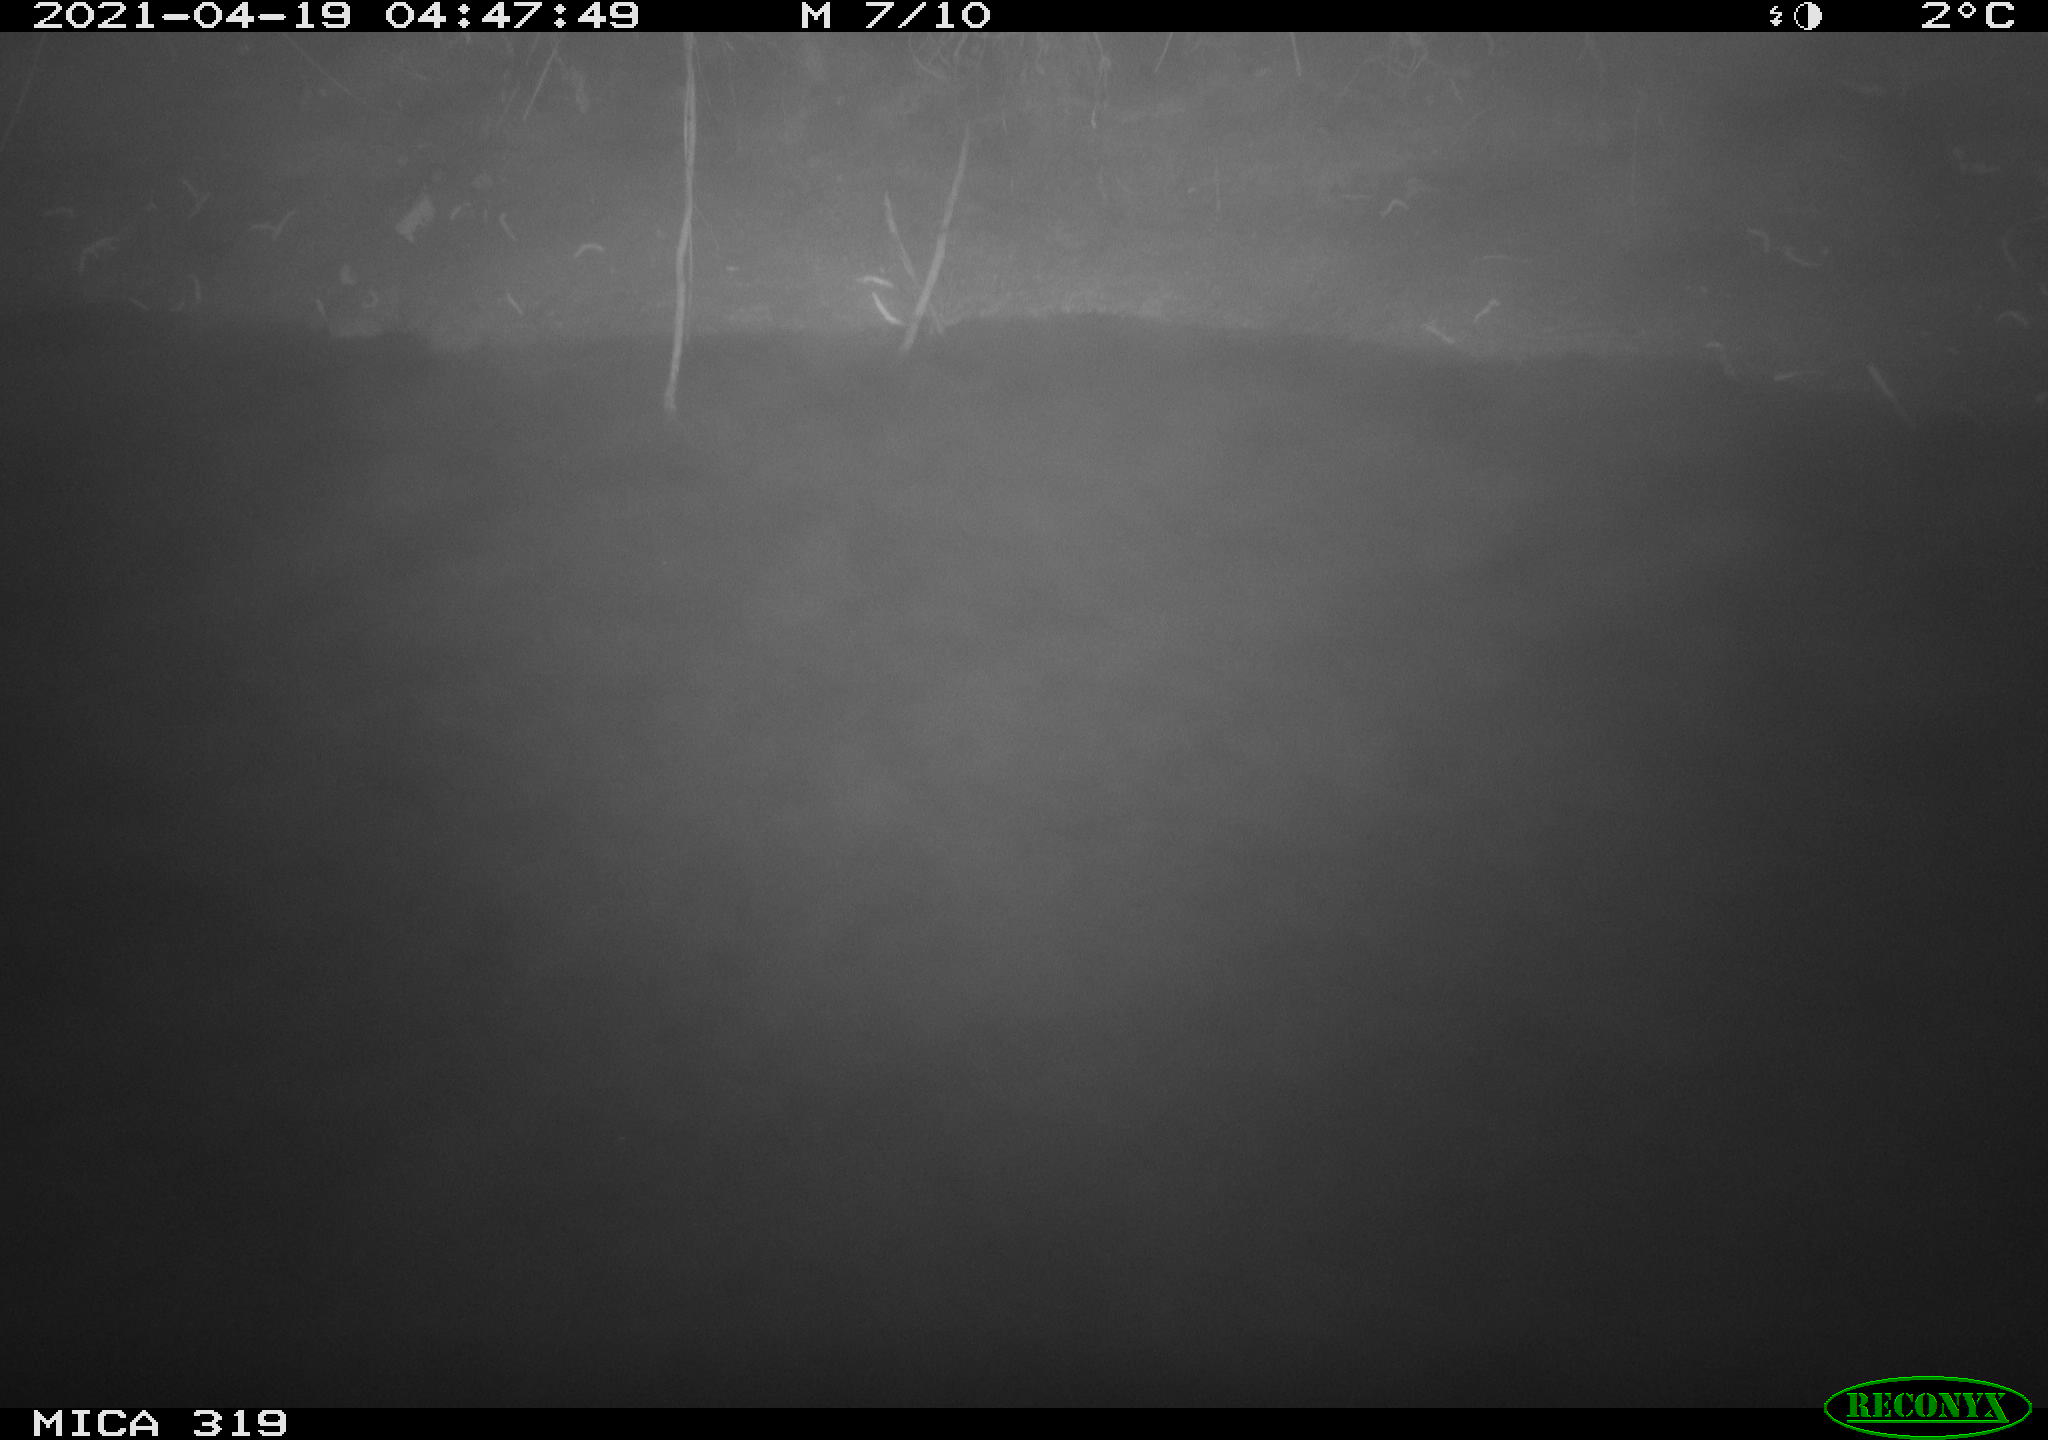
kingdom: Animalia
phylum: Chordata
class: Aves
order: Anseriformes
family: Anatidae
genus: Anas
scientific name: Anas platyrhynchos
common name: Mallard
